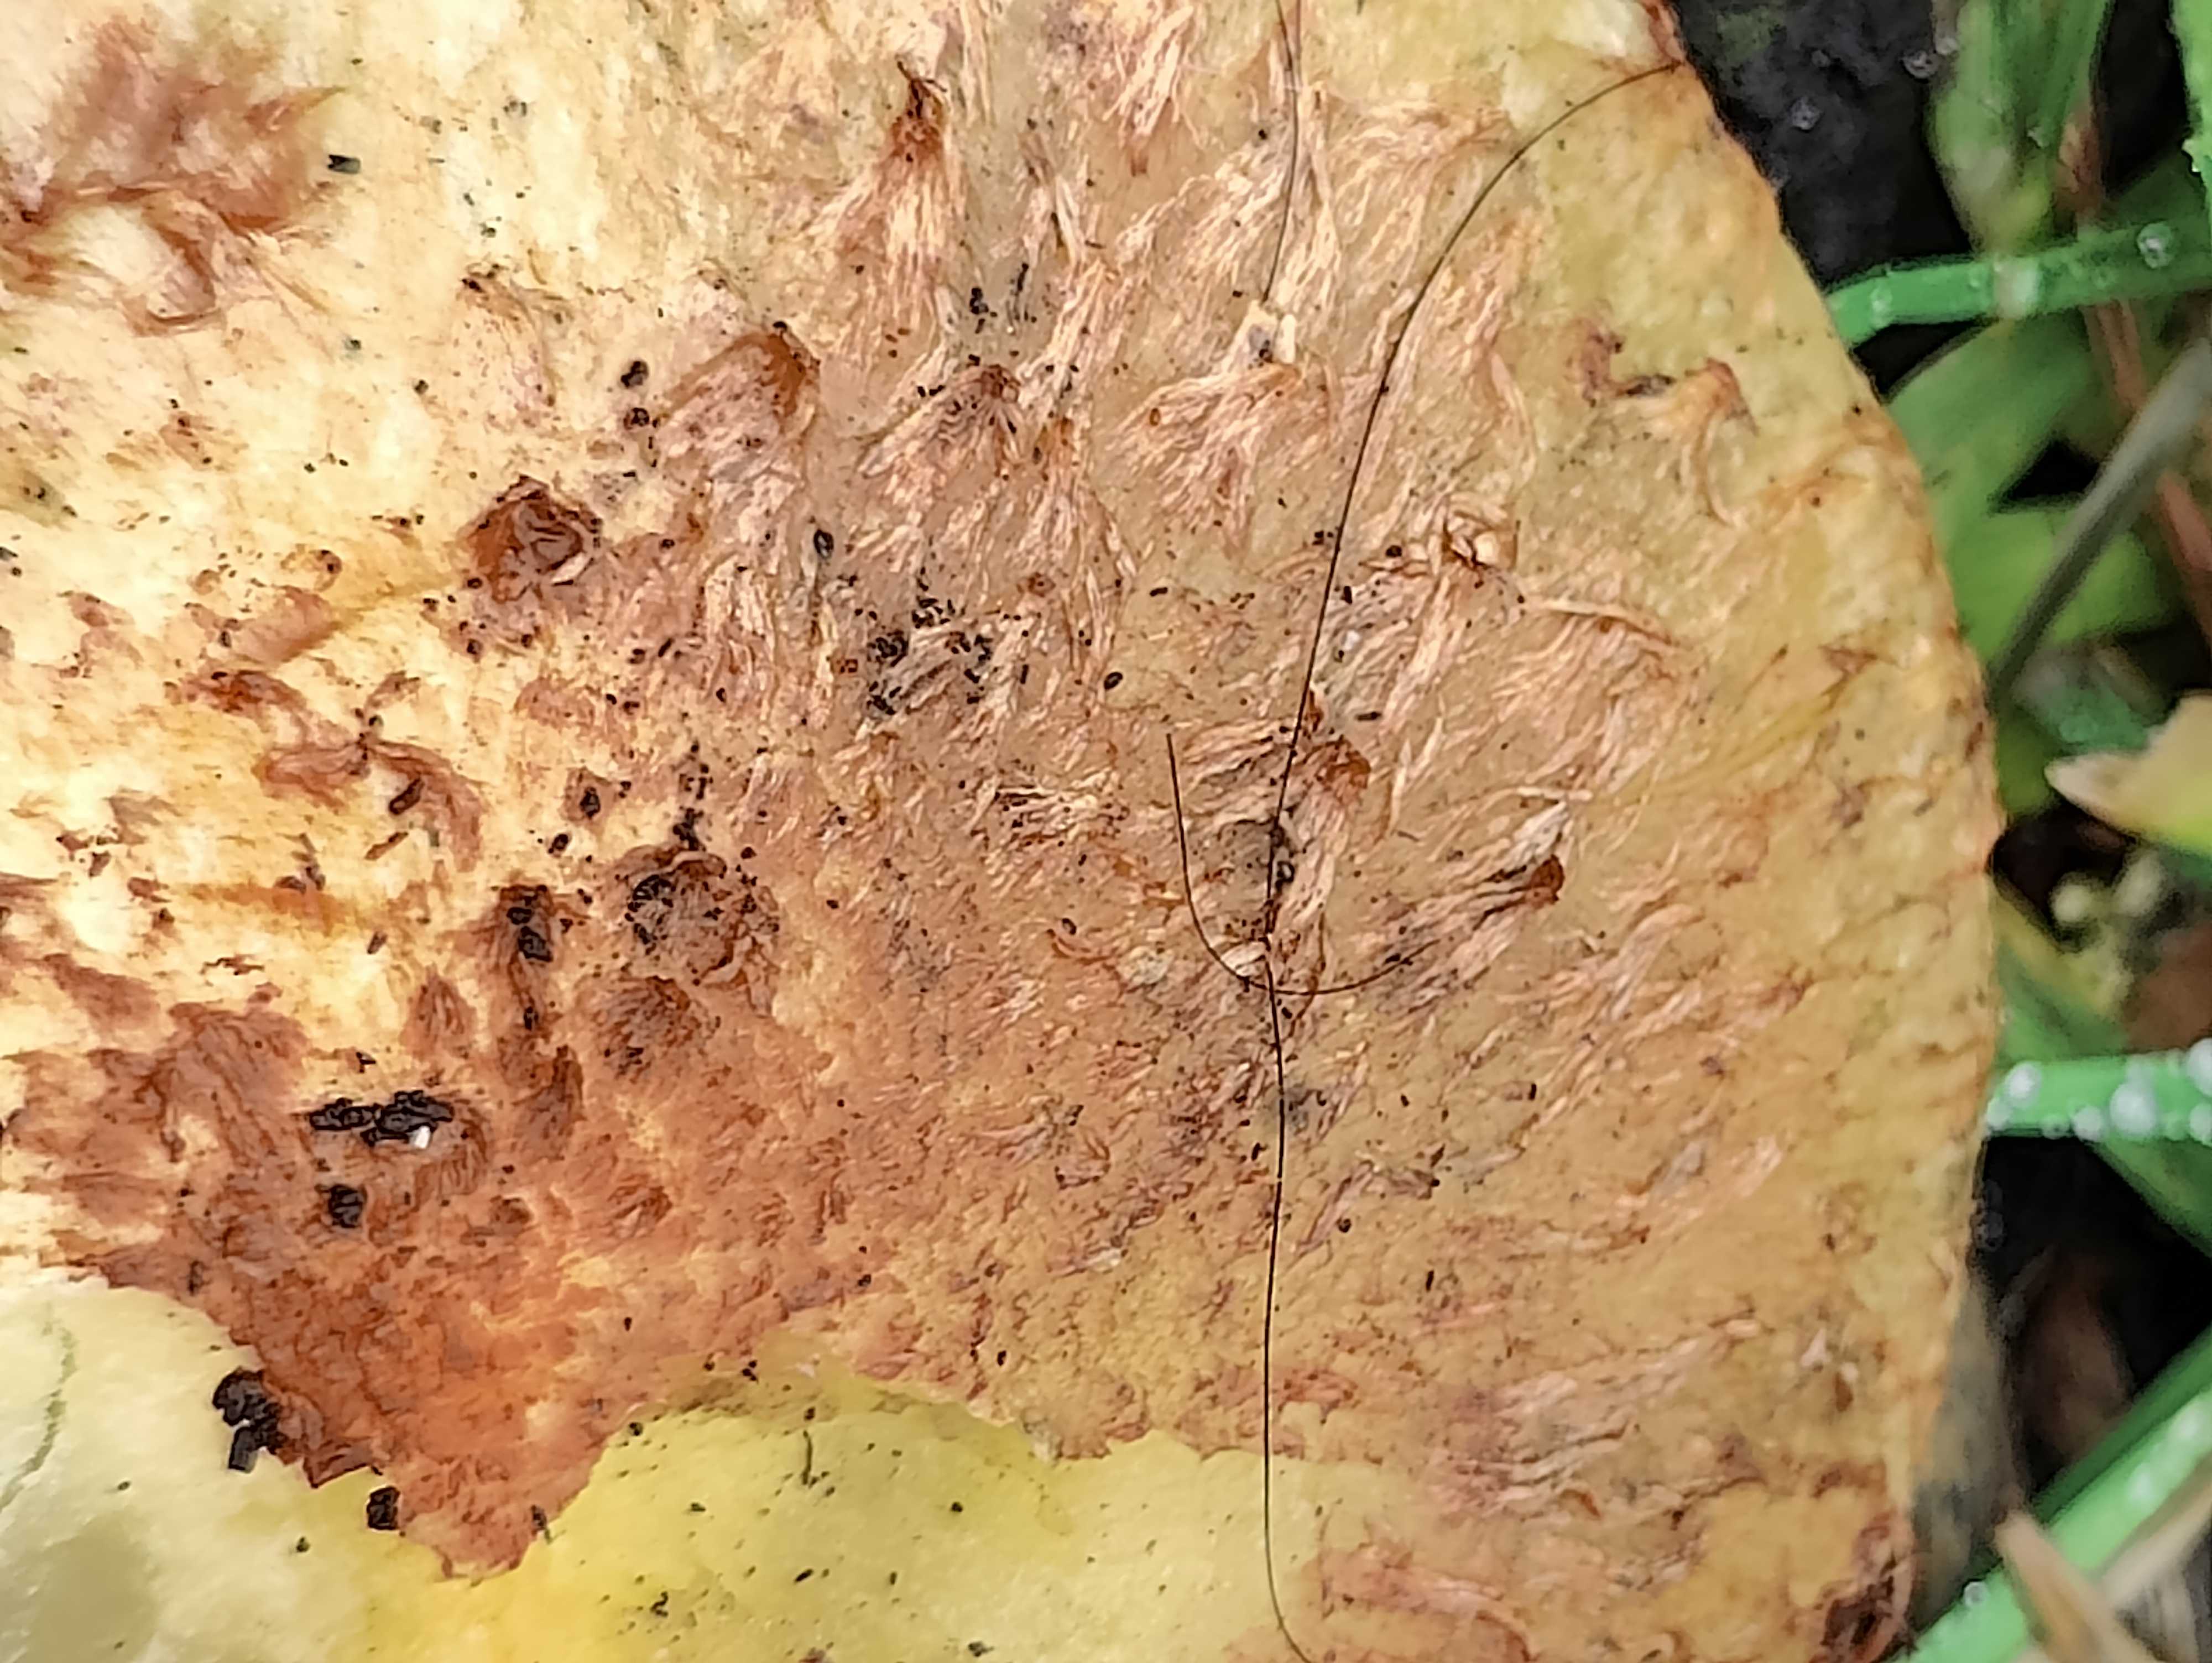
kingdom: Fungi
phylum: Basidiomycota
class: Agaricomycetes
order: Agaricales
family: Strophariaceae
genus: Pholiota
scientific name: Pholiota squarrosa
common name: krumskællet skælhat
